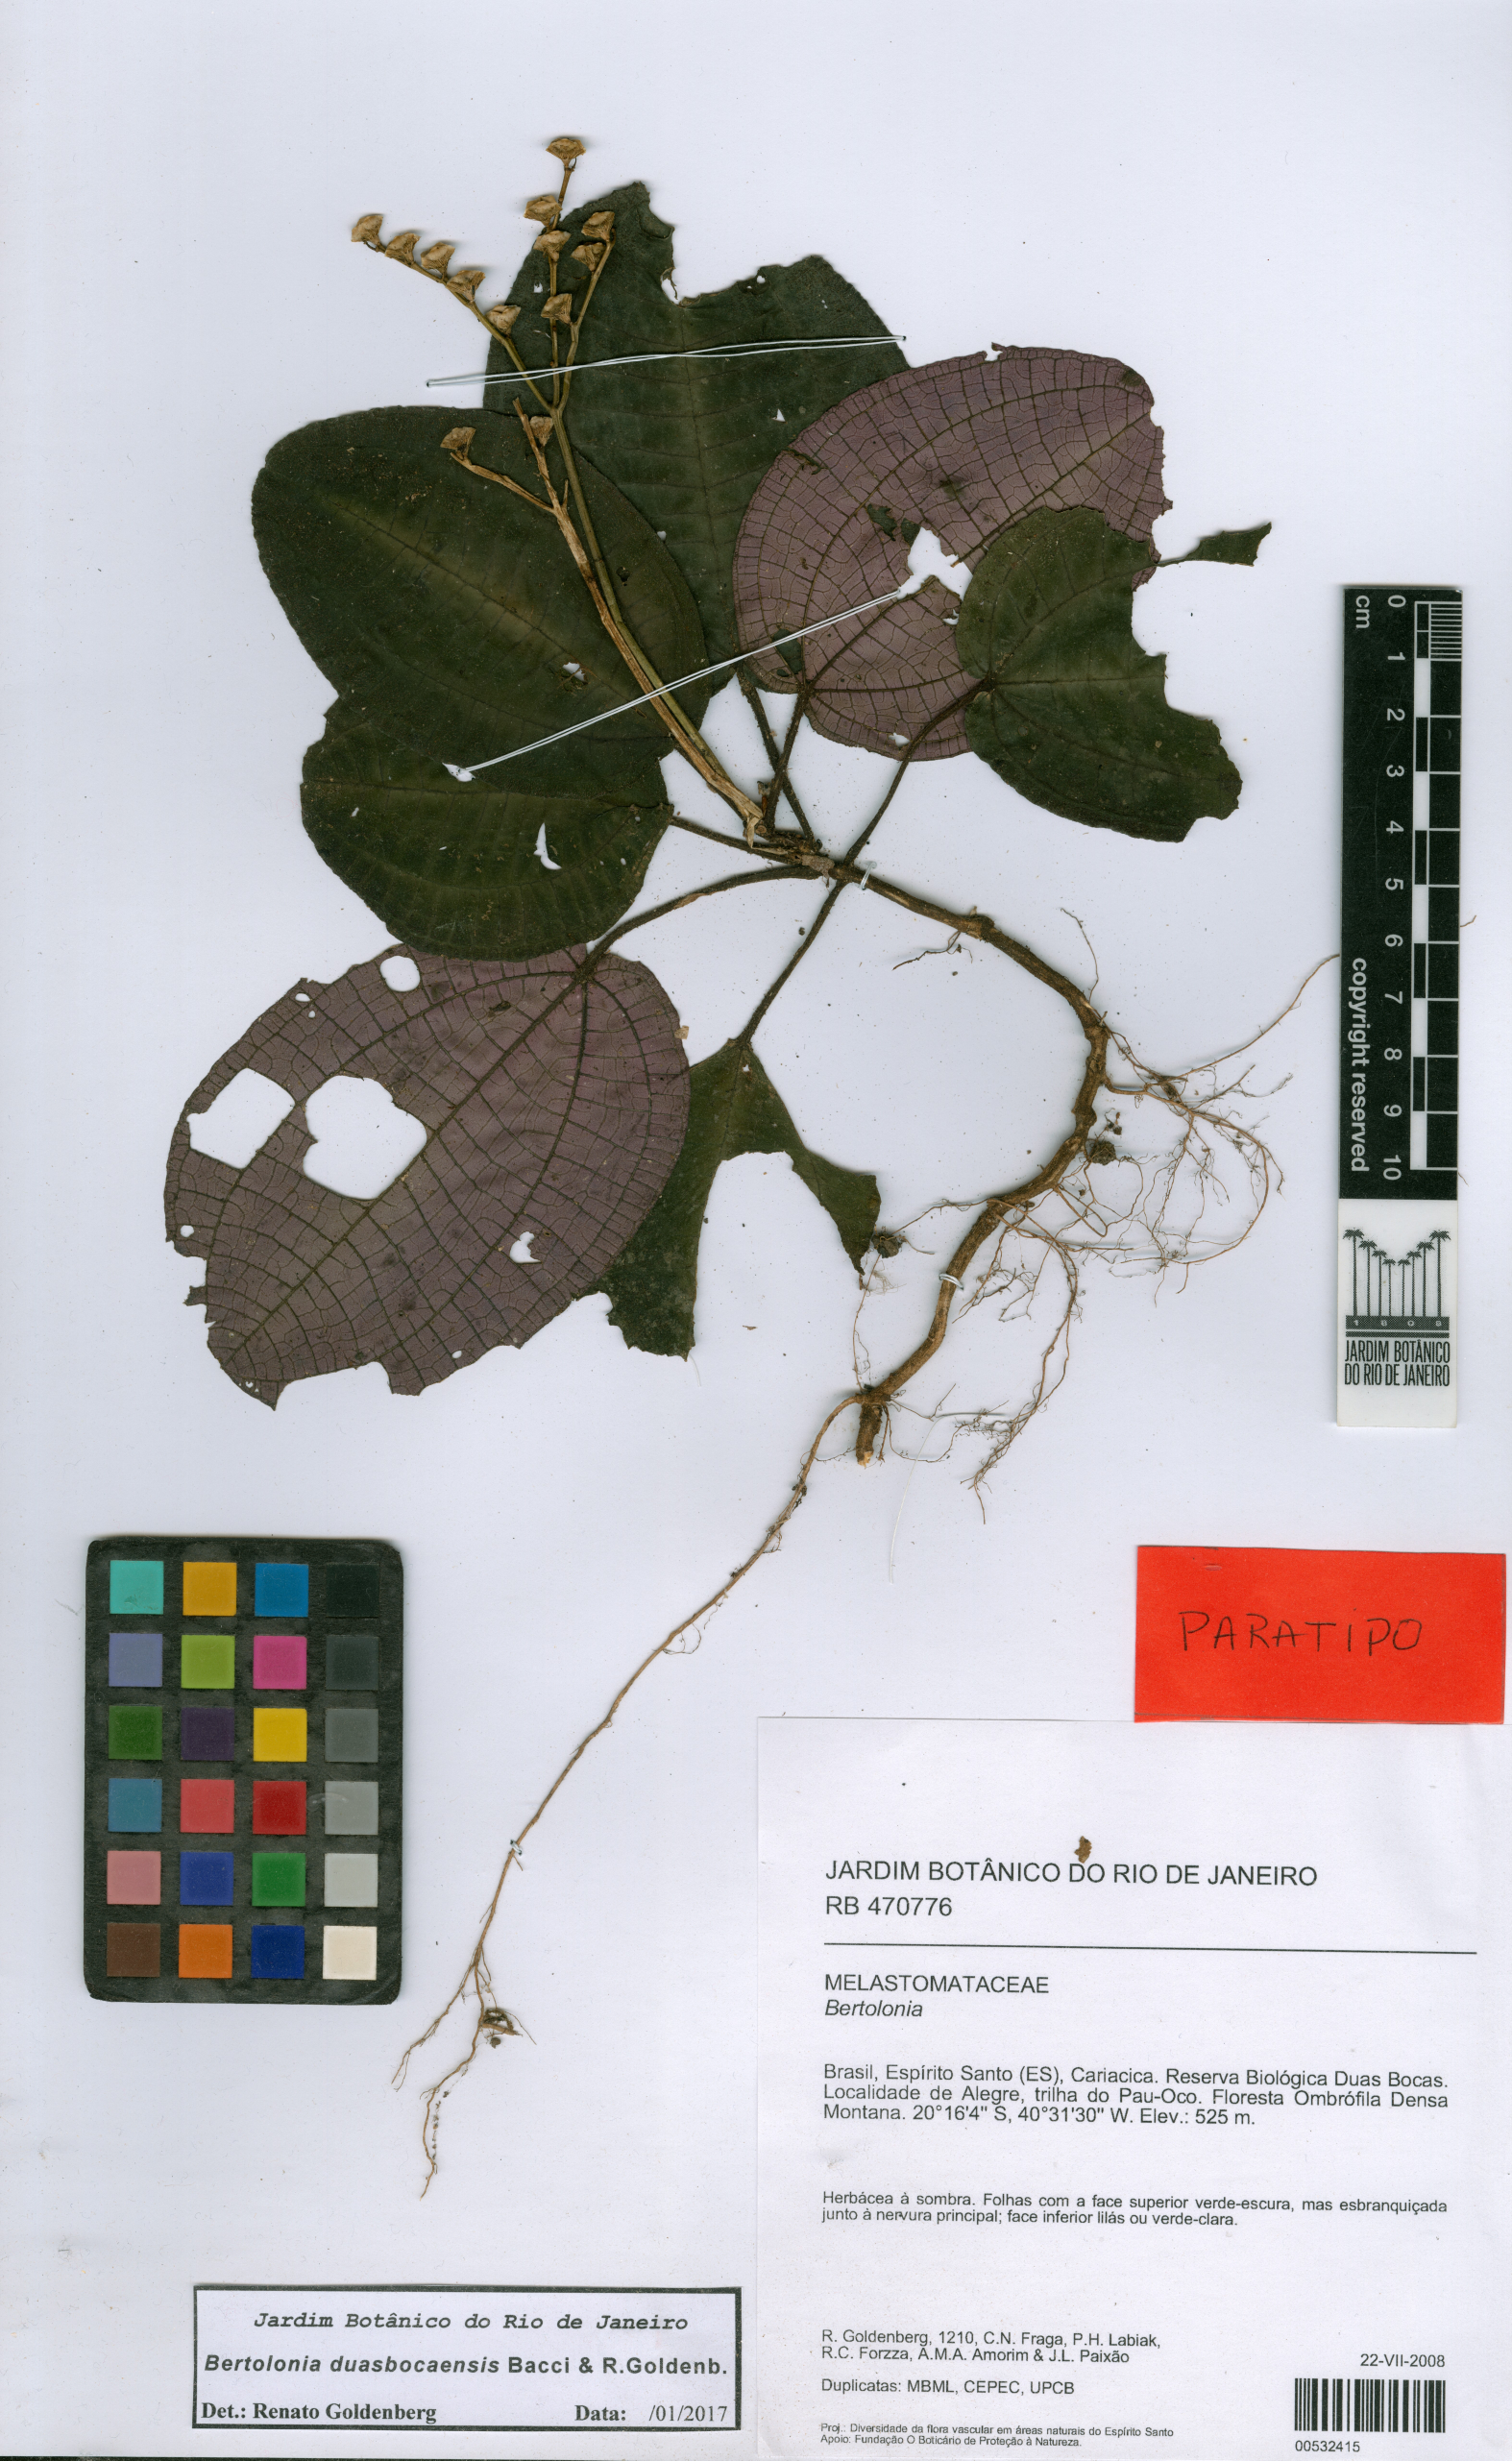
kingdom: Plantae
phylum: Tracheophyta
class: Magnoliopsida
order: Myrtales
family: Melastomataceae
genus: Bertolonia
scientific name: Bertolonia duasbocaensis
